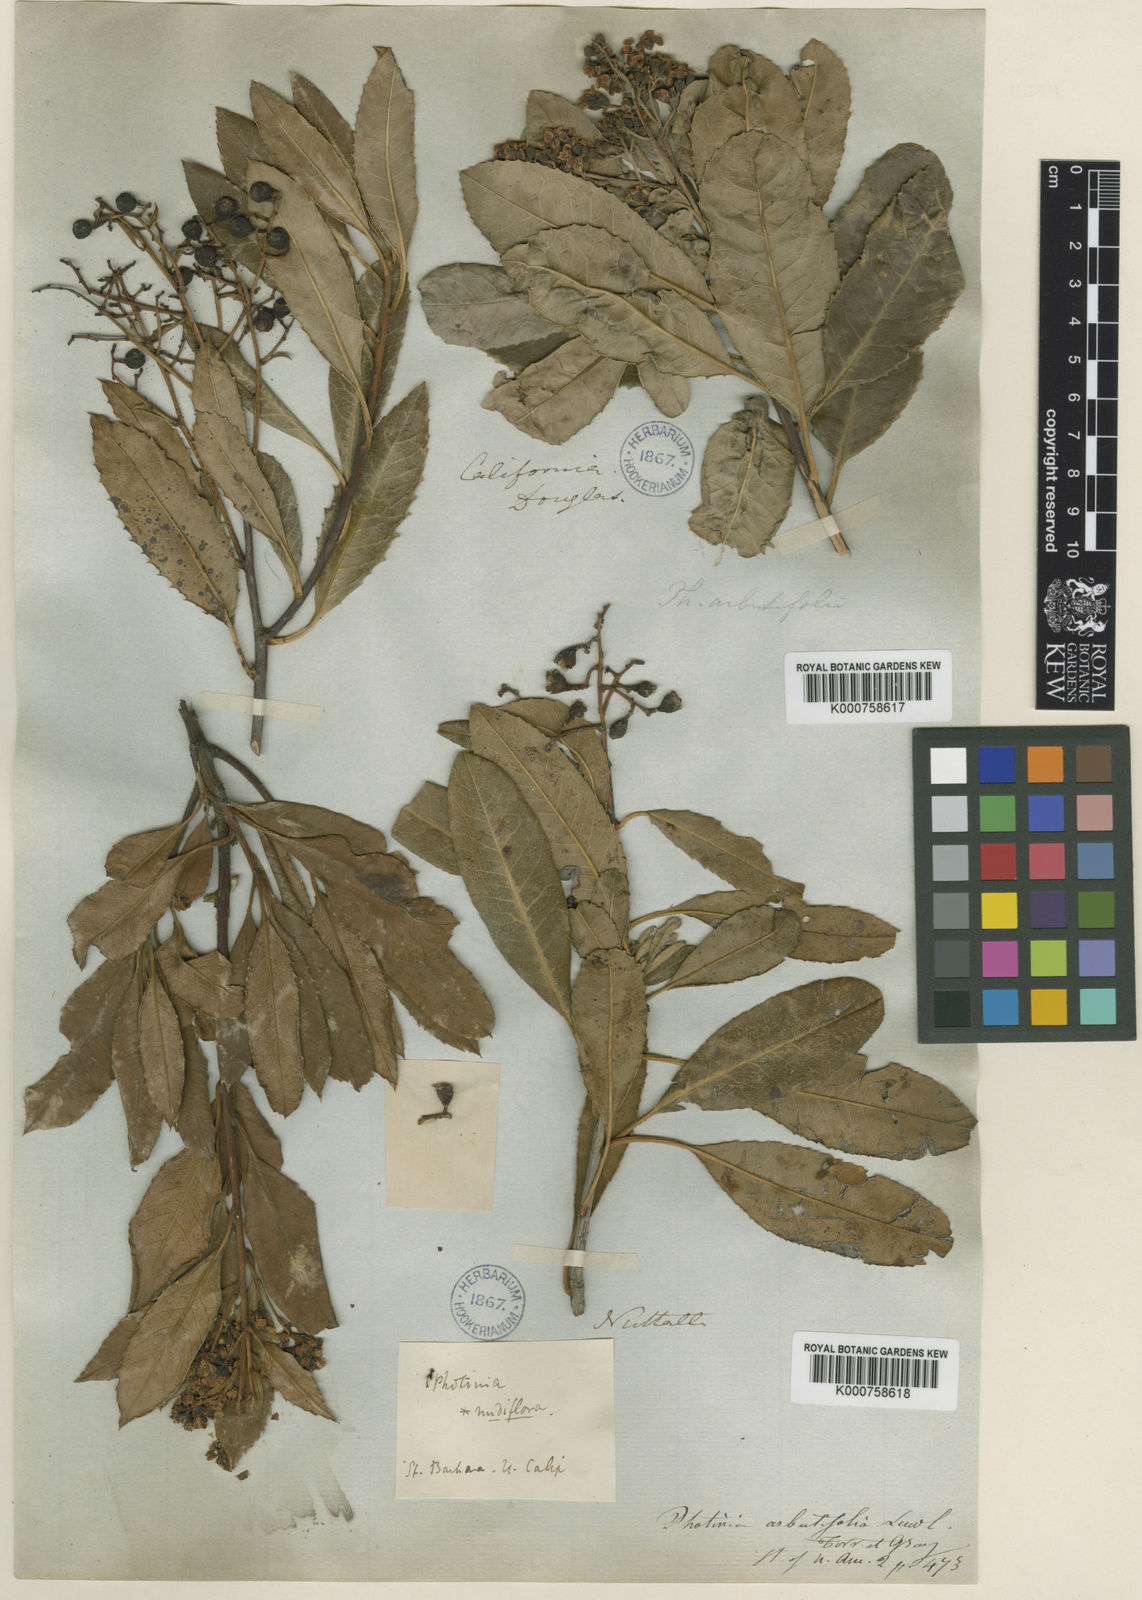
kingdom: Plantae
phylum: Tracheophyta
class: Magnoliopsida
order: Rosales
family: Rosaceae
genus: Heteromeles
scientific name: Heteromeles arbutifolia
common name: California-holly
